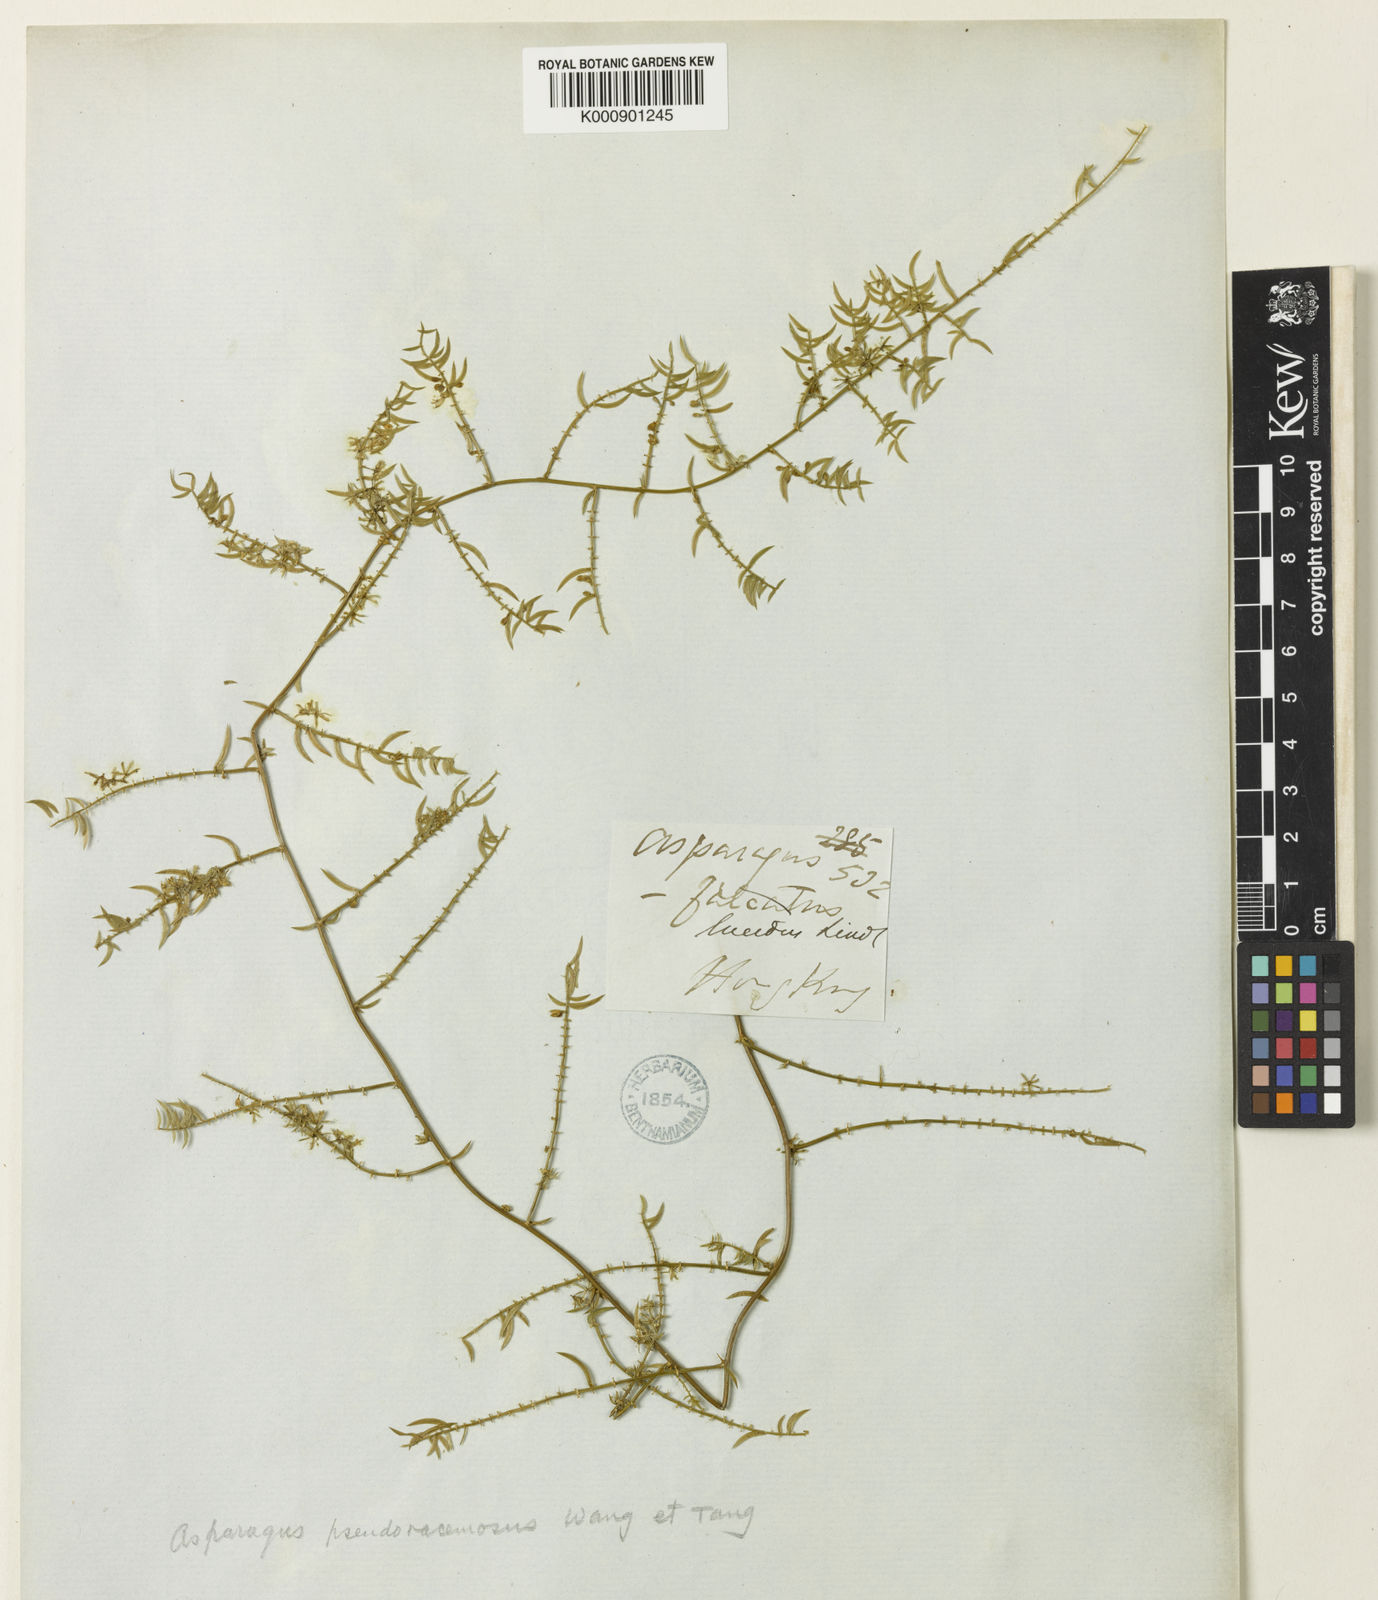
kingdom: Plantae
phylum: Tracheophyta
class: Liliopsida
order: Asparagales
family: Asparagaceae
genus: Asparagus
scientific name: Asparagus
